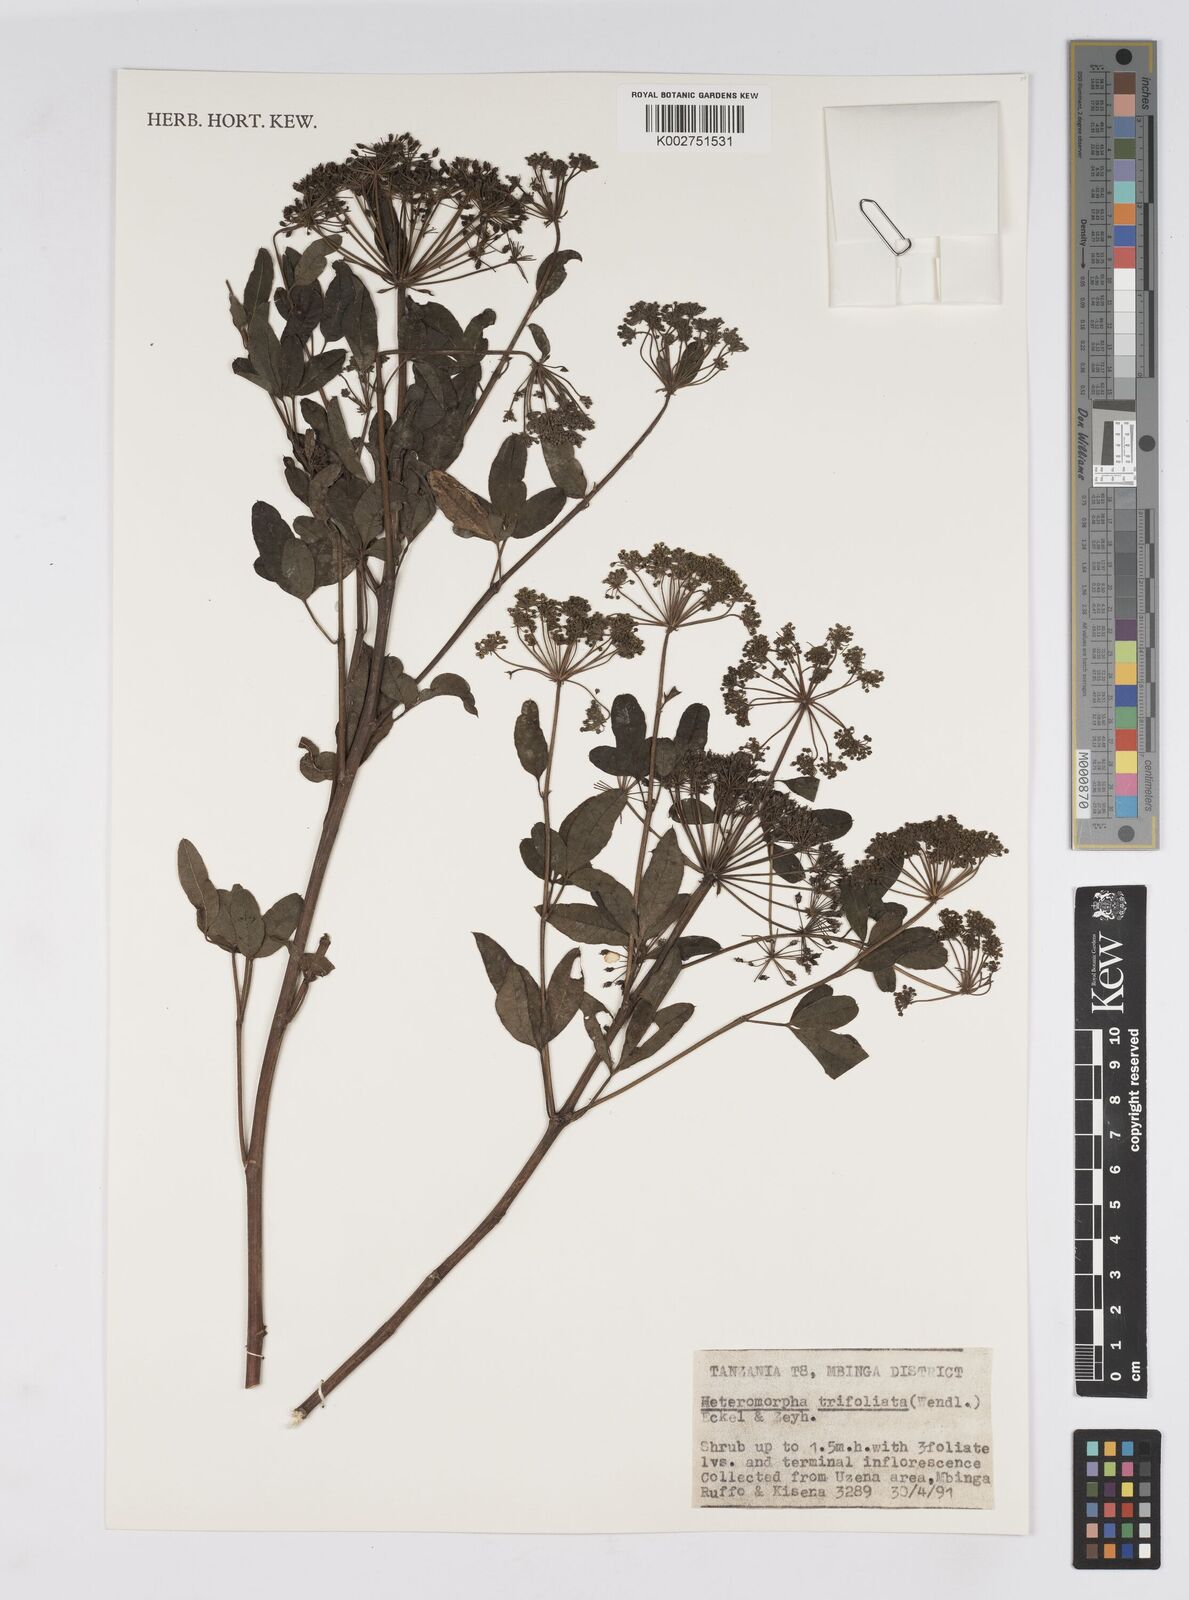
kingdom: Plantae
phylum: Tracheophyta
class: Magnoliopsida
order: Apiales
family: Apiaceae
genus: Heteromorpha
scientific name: Heteromorpha arborescens
